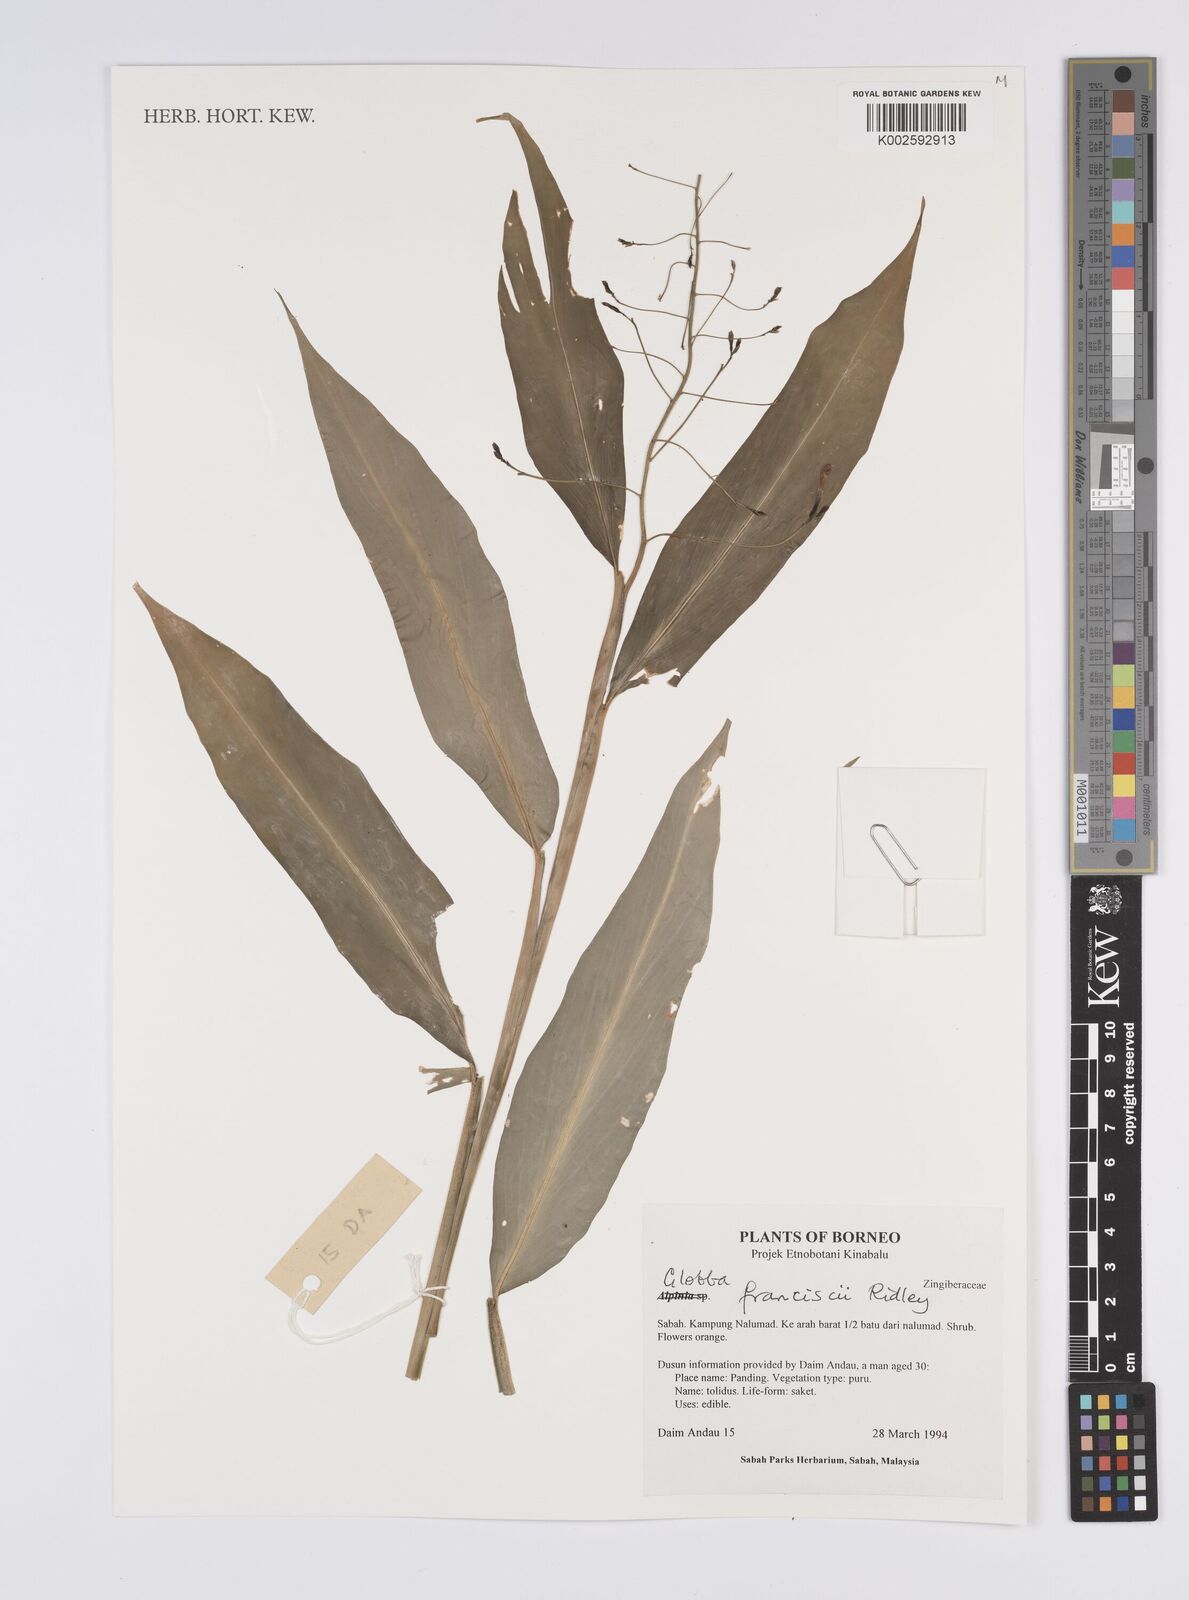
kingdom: Plantae
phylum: Tracheophyta
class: Liliopsida
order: Zingiberales
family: Zingiberaceae
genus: Globba
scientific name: Globba francisci
